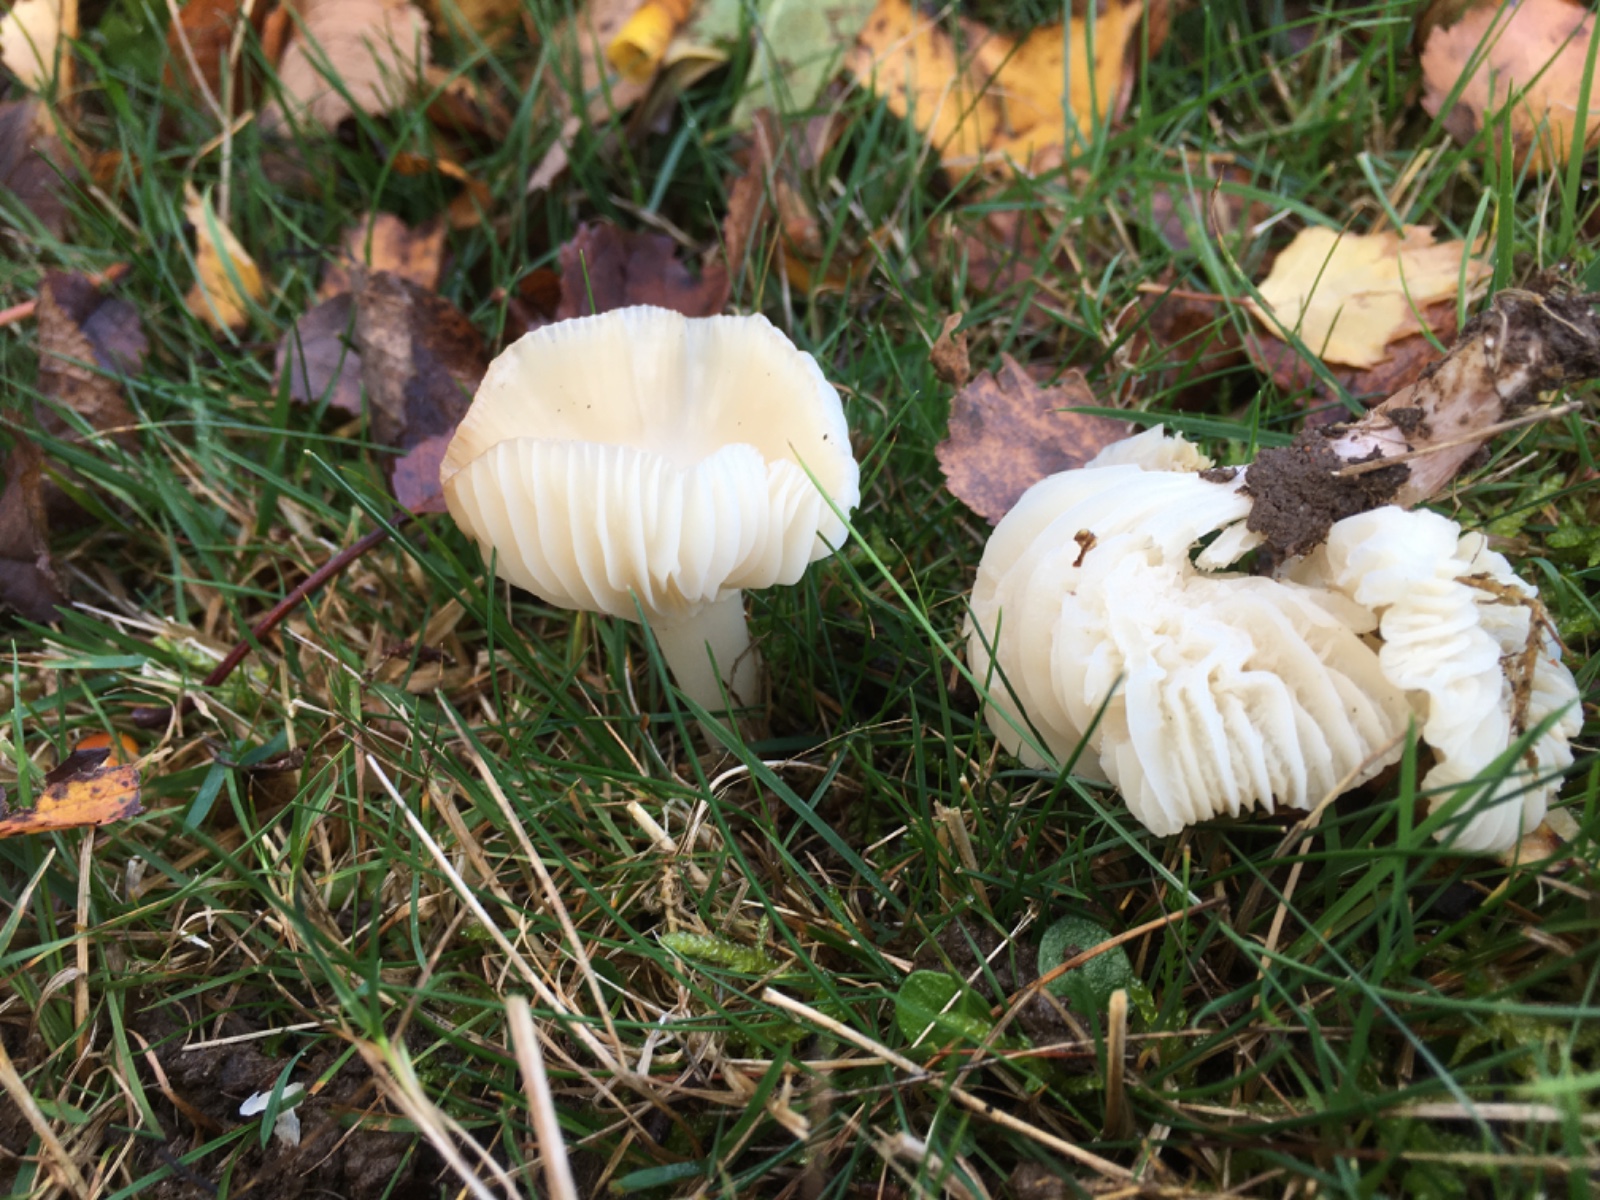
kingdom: Fungi
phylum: Basidiomycota
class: Agaricomycetes
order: Agaricales
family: Hygrophoraceae
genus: Cuphophyllus
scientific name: Cuphophyllus virgineus
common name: snehvid vokshat
